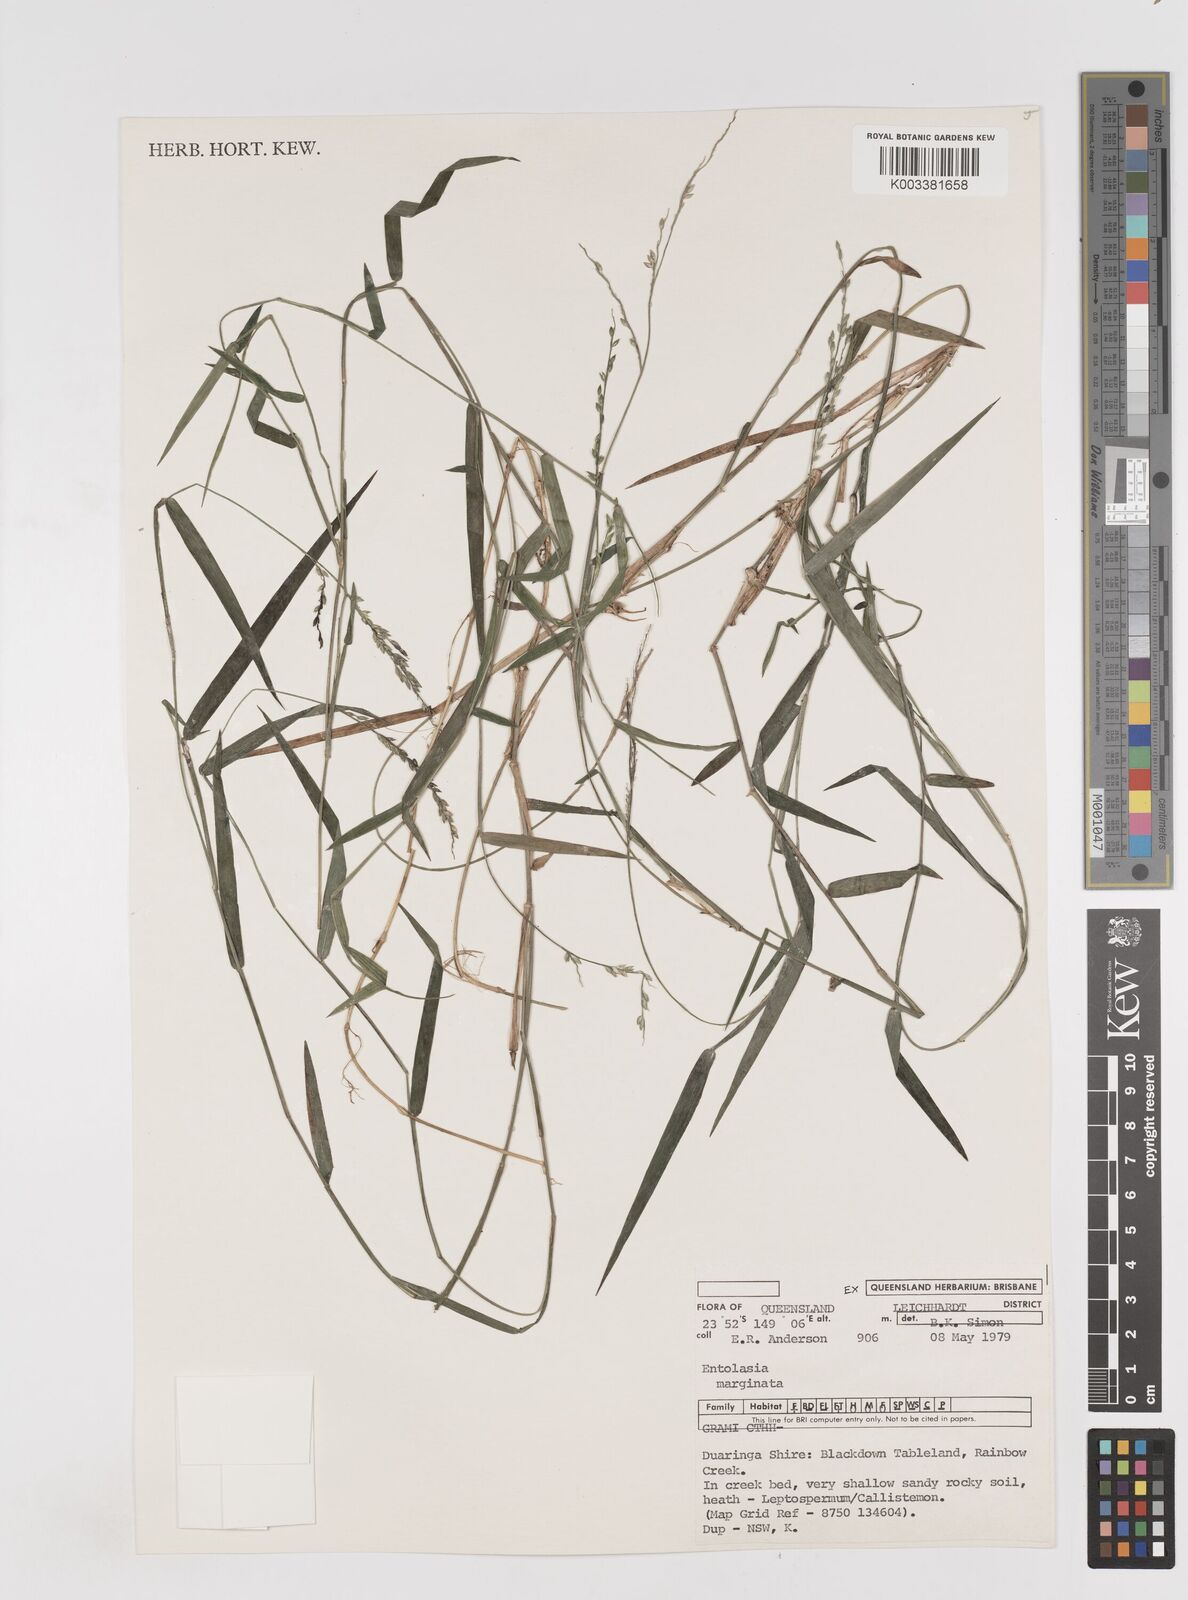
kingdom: Plantae
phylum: Tracheophyta
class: Liliopsida
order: Poales
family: Poaceae
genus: Entolasia
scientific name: Entolasia marginata
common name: Australian panicgrass
